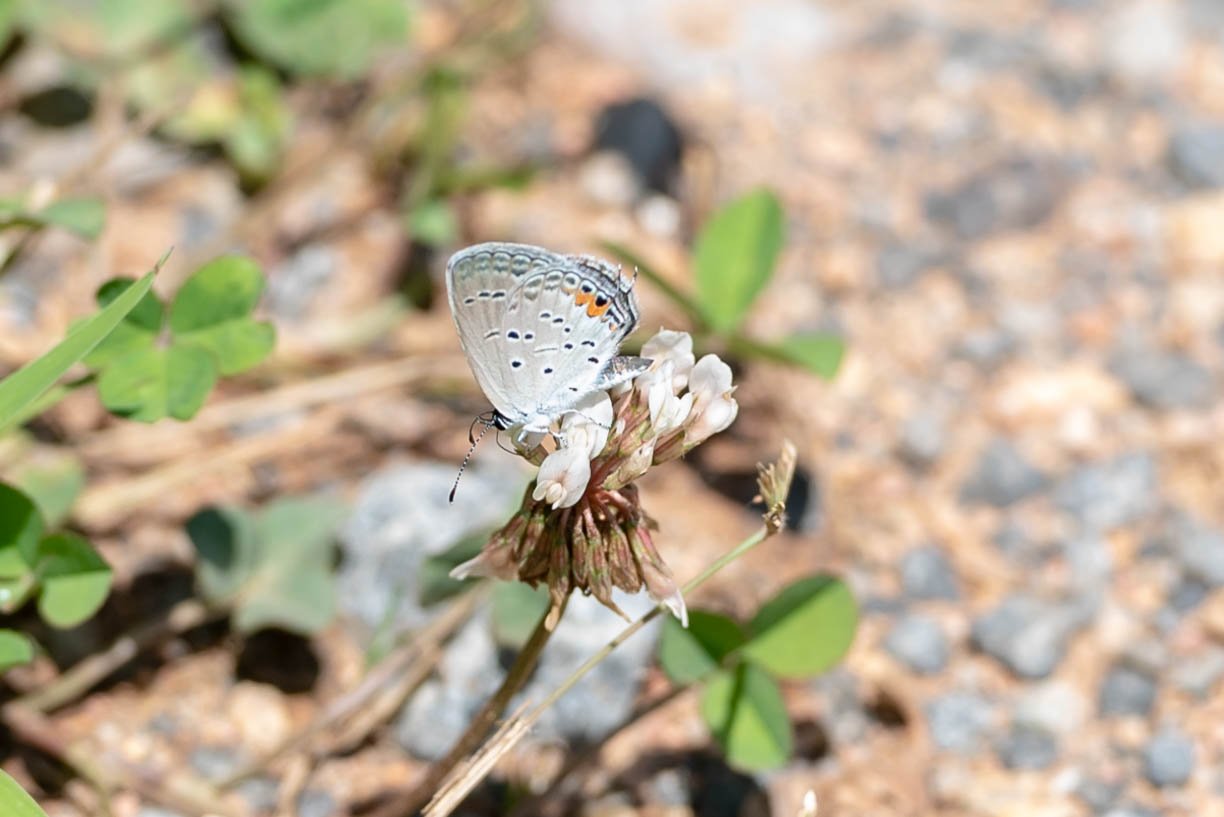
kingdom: Animalia
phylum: Arthropoda
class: Insecta
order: Lepidoptera
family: Lycaenidae
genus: Elkalyce
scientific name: Elkalyce comyntas
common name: Eastern Tailed-Blue
